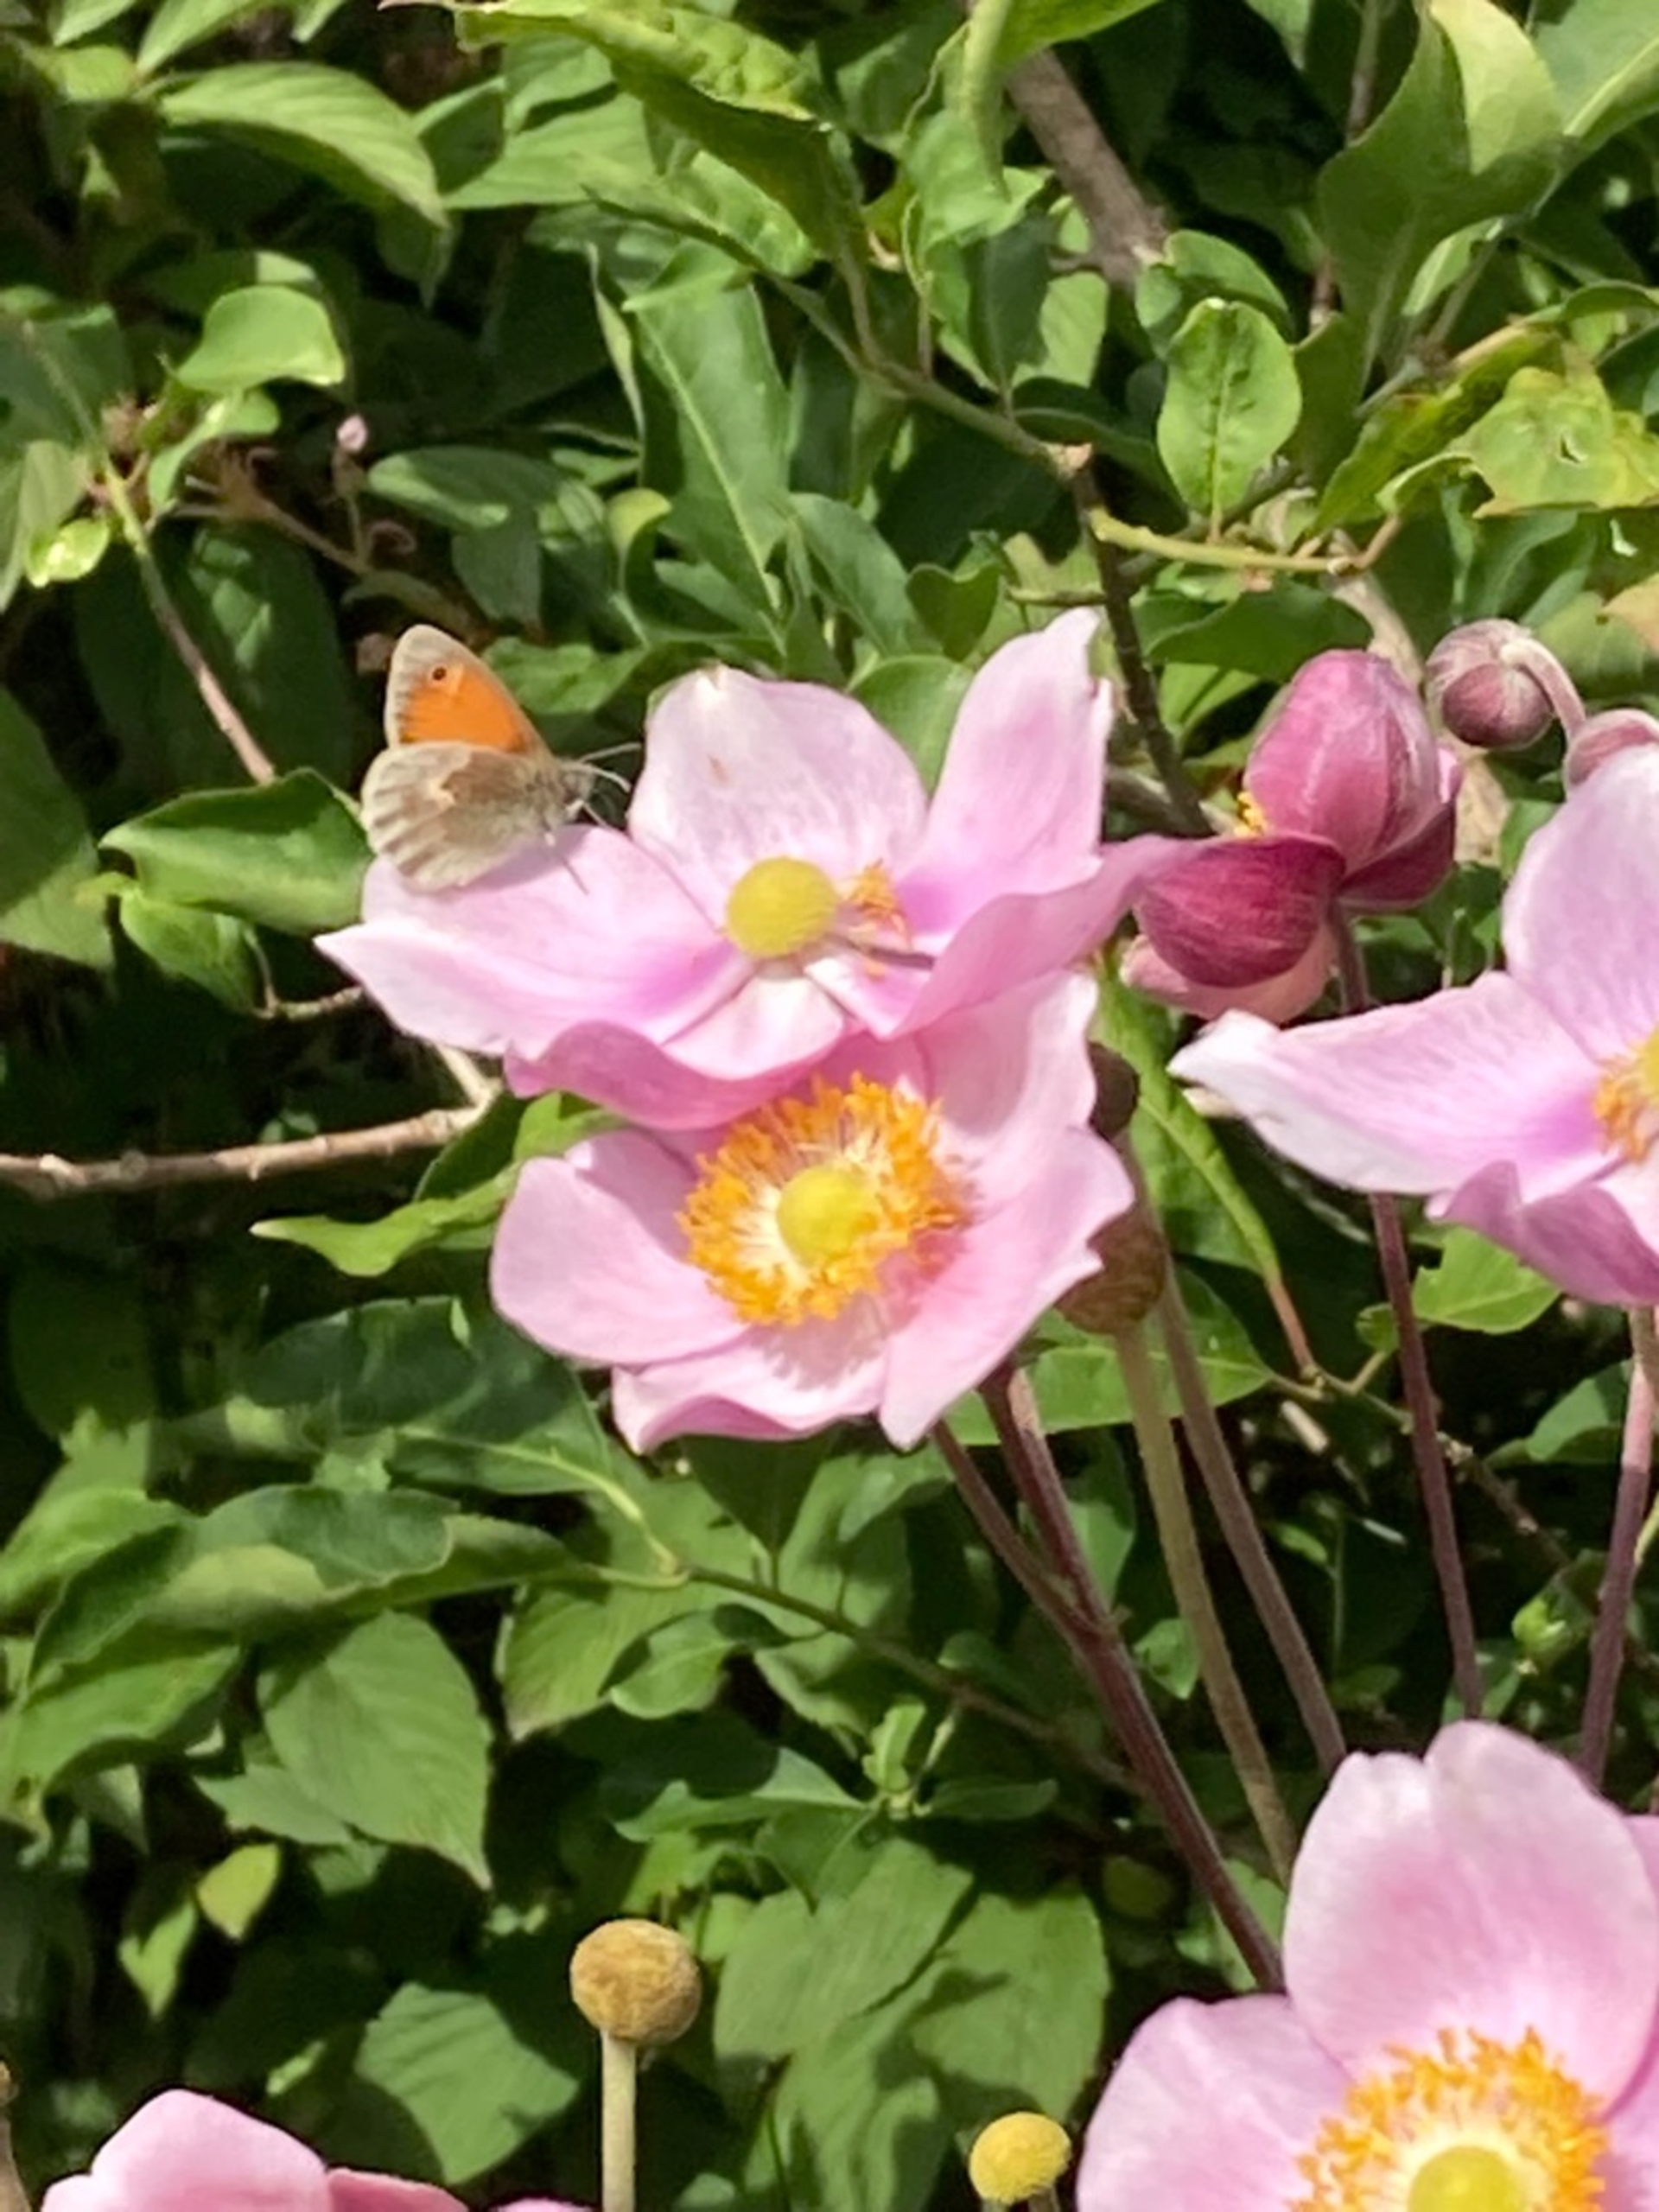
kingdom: Animalia
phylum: Arthropoda
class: Insecta
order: Lepidoptera
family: Nymphalidae
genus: Coenonympha
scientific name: Coenonympha pamphilus
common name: Okkergul randøje
